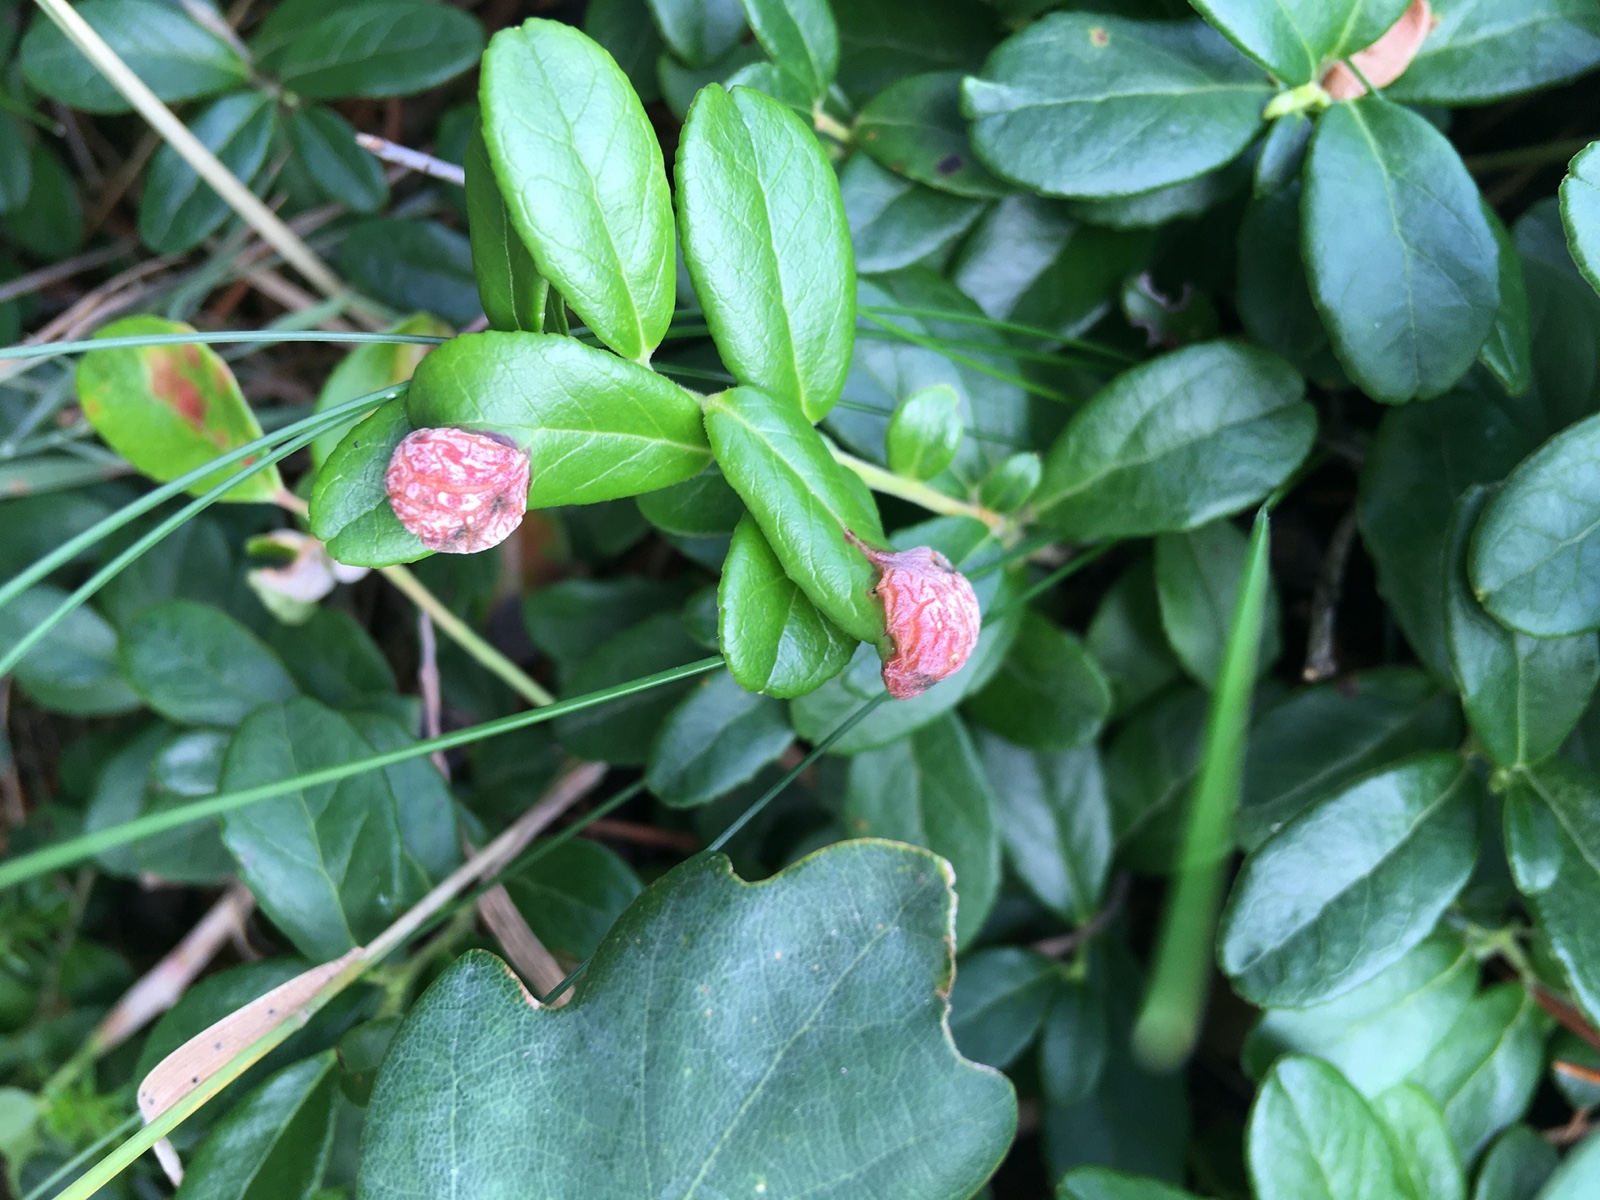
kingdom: Fungi
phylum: Basidiomycota
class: Exobasidiomycetes
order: Exobasidiales
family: Exobasidiaceae
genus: Exobasidium
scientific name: Exobasidium vaccinii
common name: tyttebærblad-bøllesvamp
